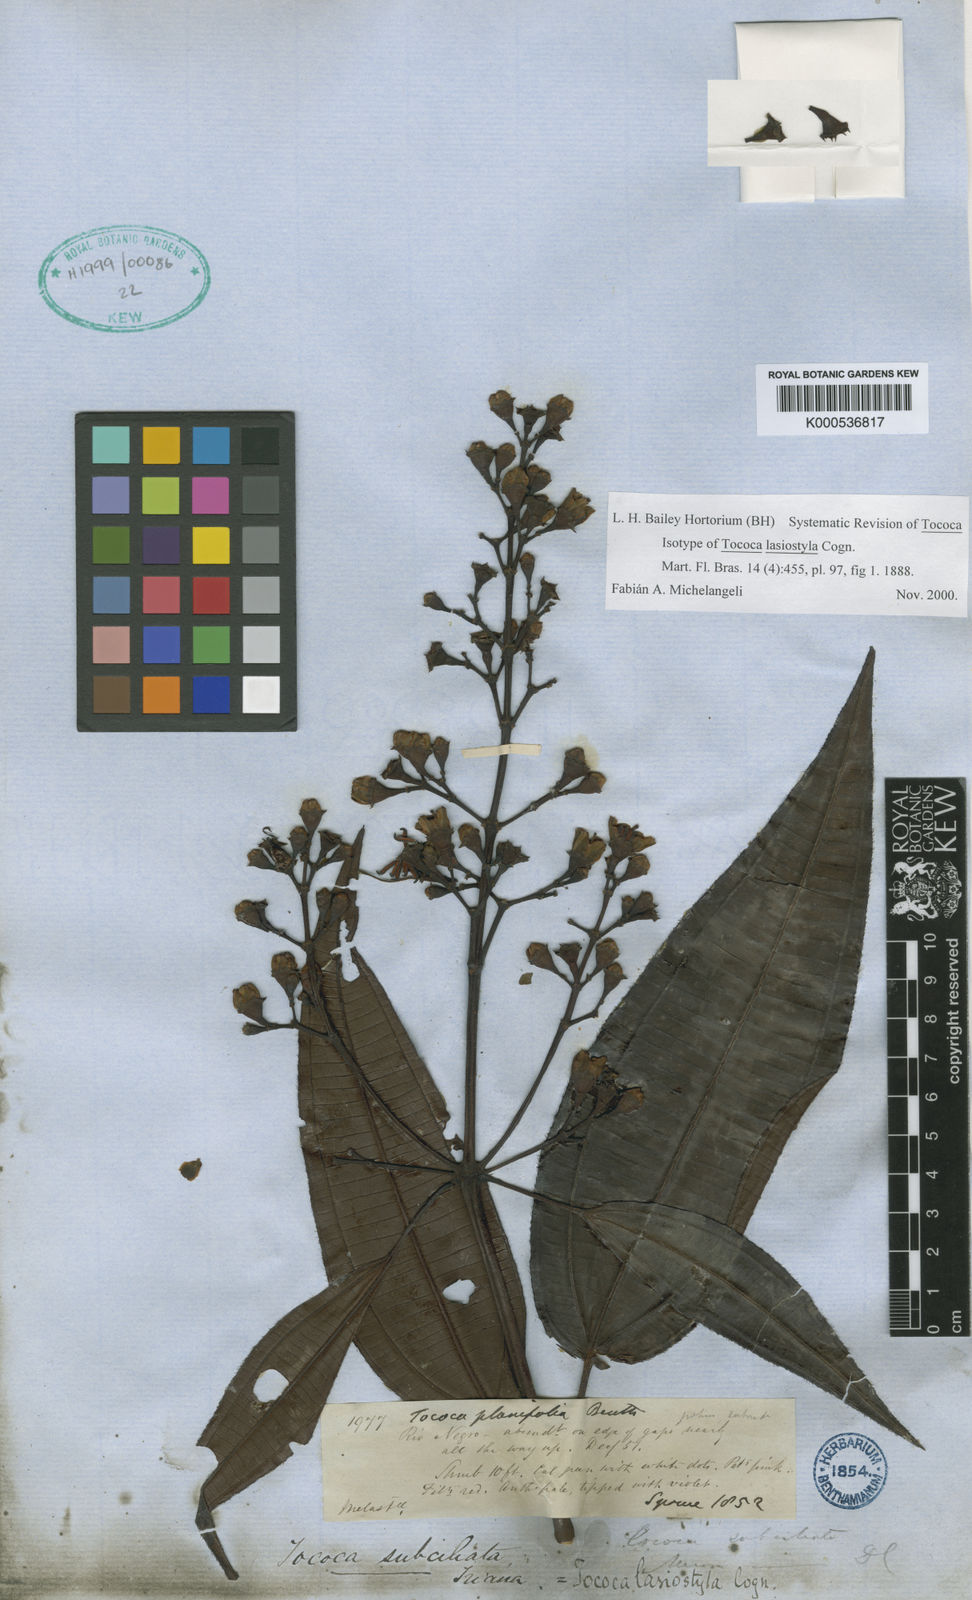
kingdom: Plantae
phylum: Tracheophyta
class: Magnoliopsida
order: Myrtales
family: Melastomataceae
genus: Miconia
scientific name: Miconia subciliata
